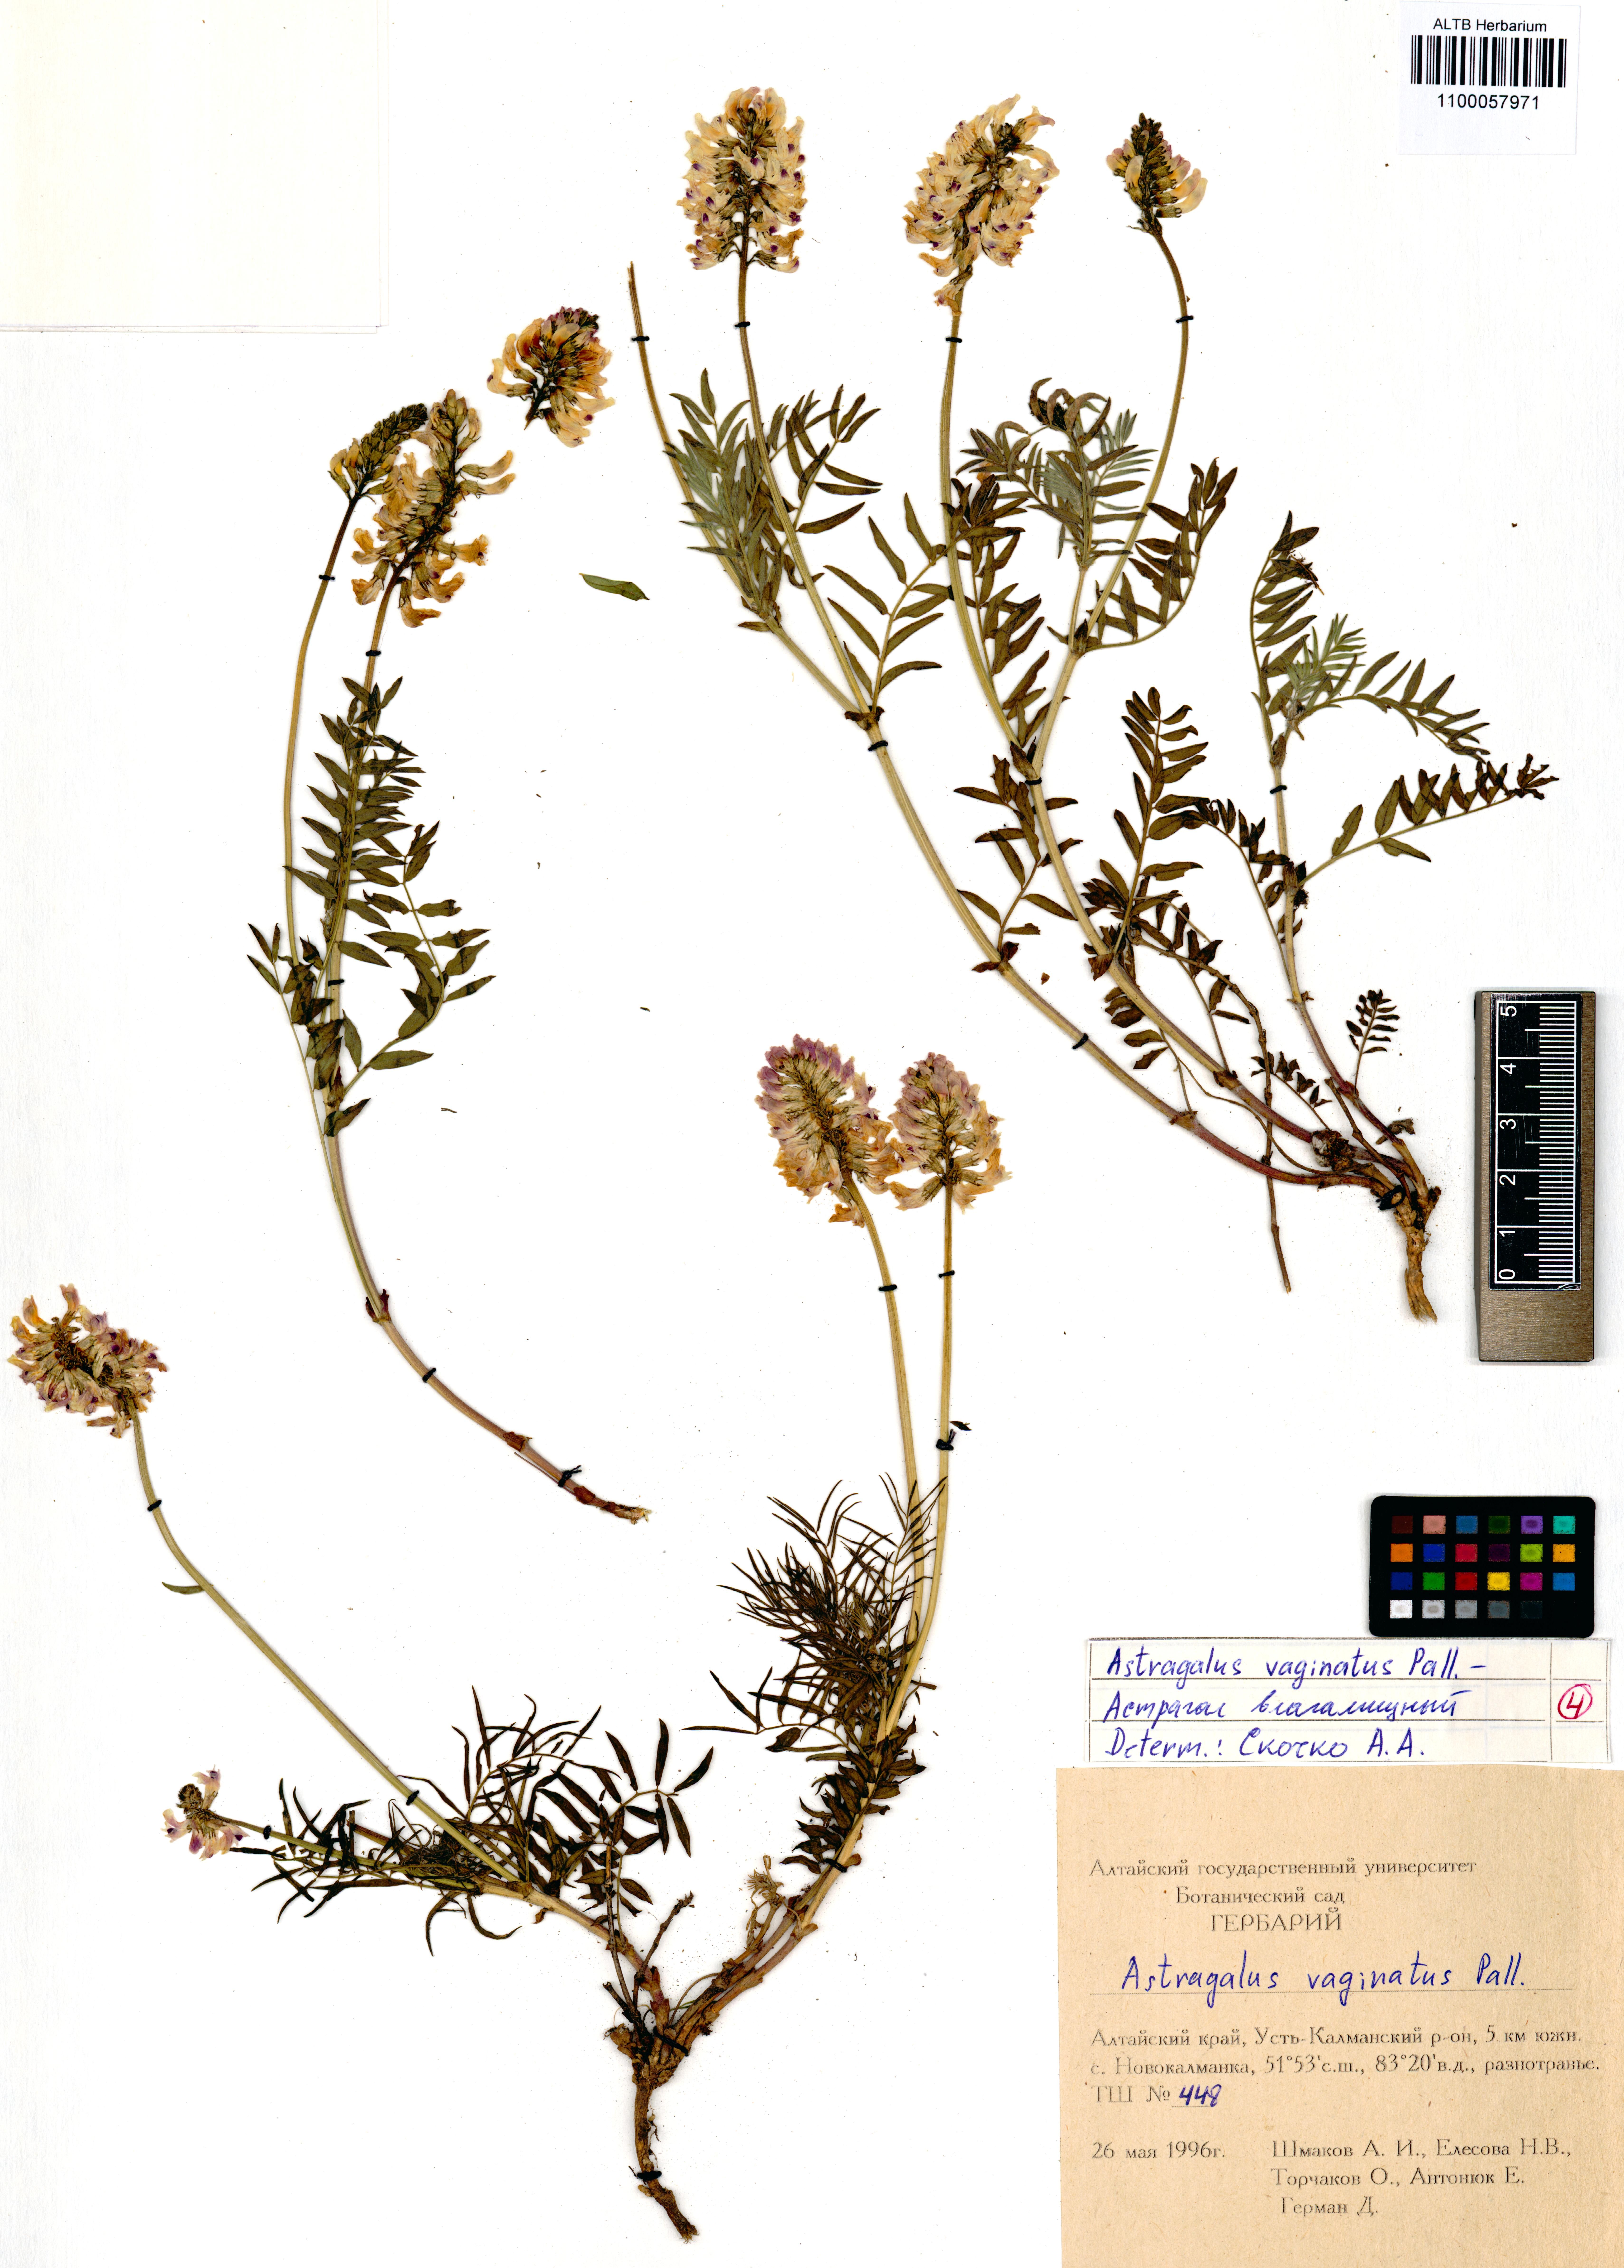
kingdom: Plantae
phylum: Tracheophyta
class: Magnoliopsida
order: Fabales
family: Fabaceae
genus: Astragalus
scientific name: Astragalus vaginatus
